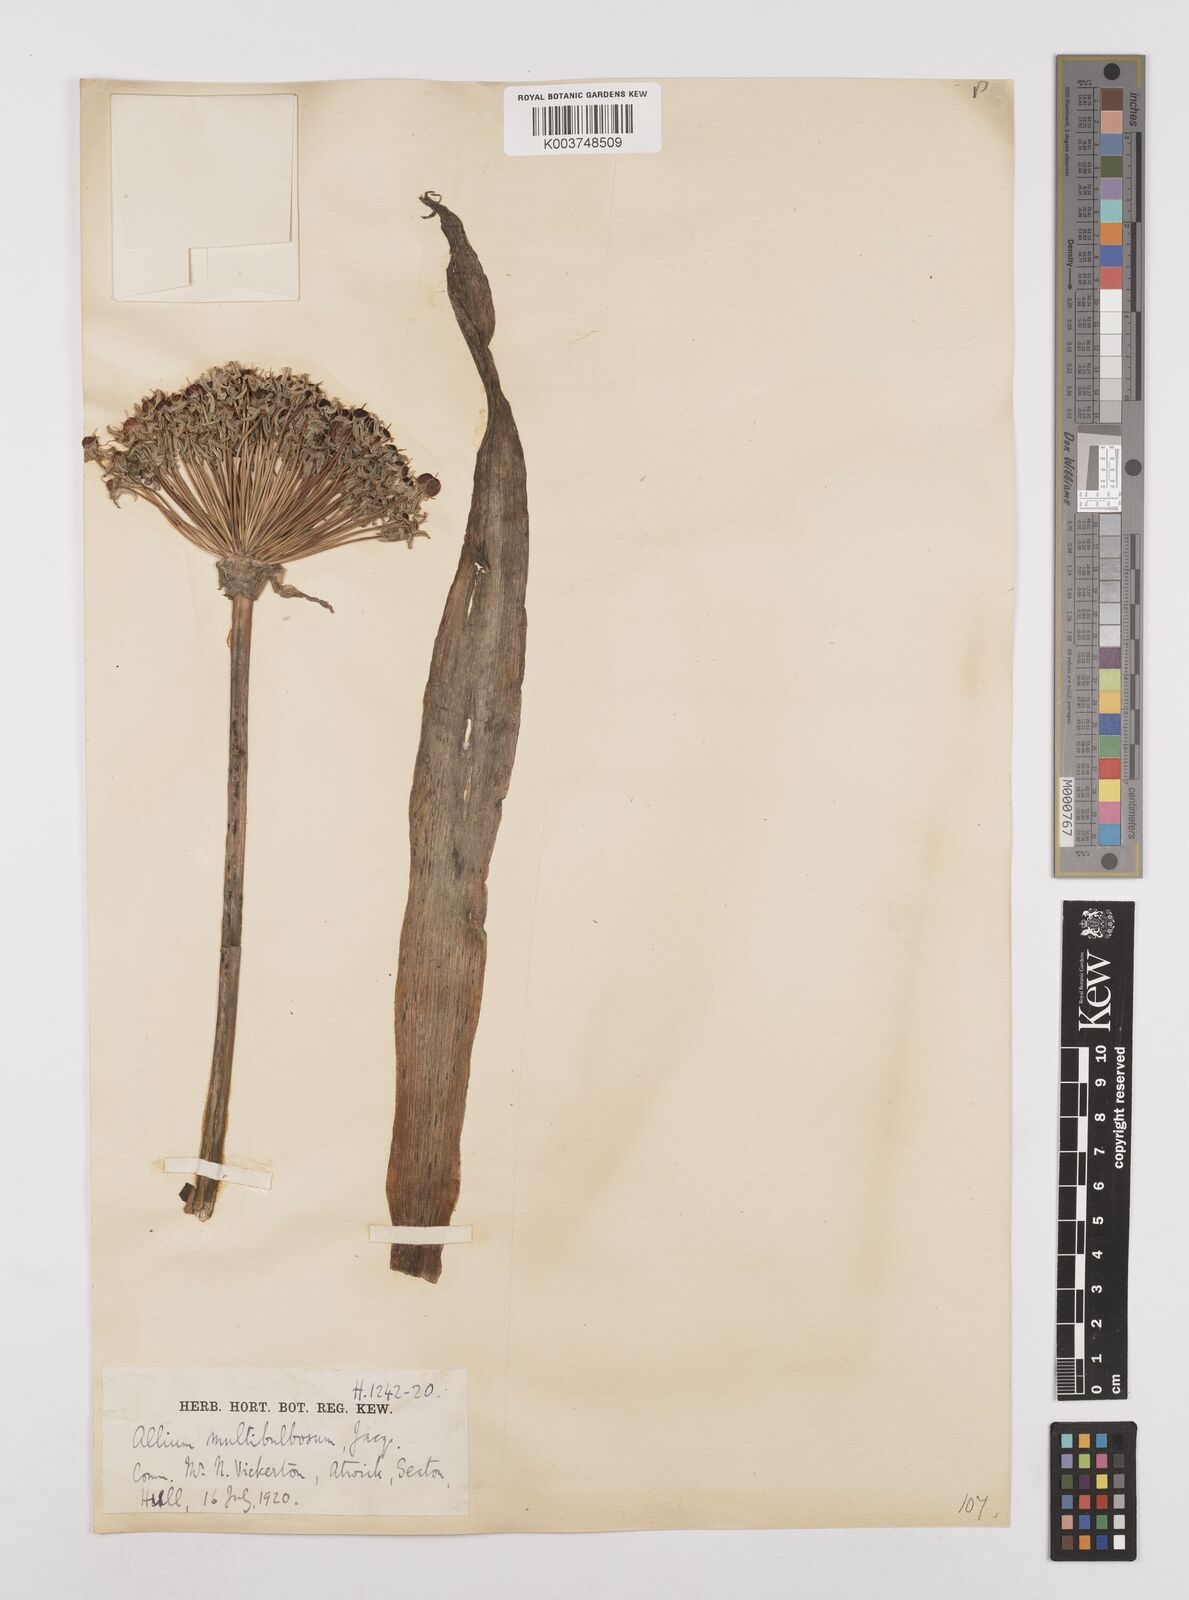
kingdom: Plantae
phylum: Tracheophyta
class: Liliopsida
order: Asparagales
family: Amaryllidaceae
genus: Allium
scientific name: Allium multibulbosum
